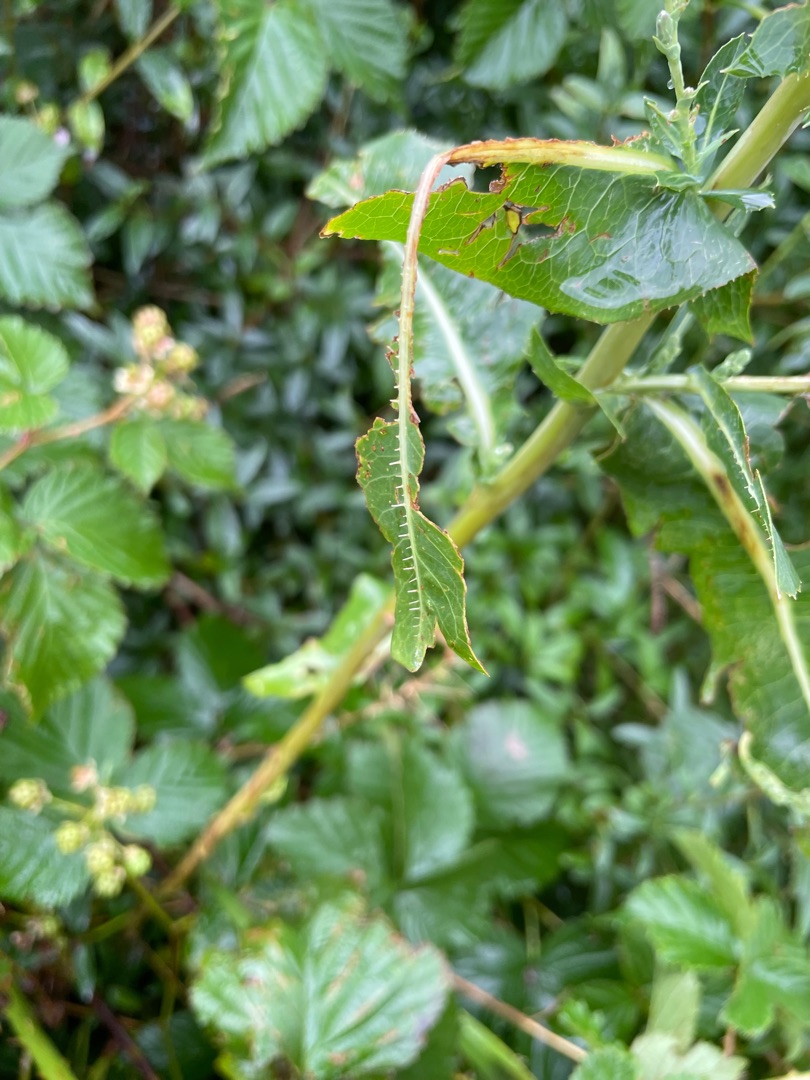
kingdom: Plantae
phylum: Tracheophyta
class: Magnoliopsida
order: Asterales
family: Asteraceae
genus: Lactuca
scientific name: Lactuca serriola
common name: Tornet salat
